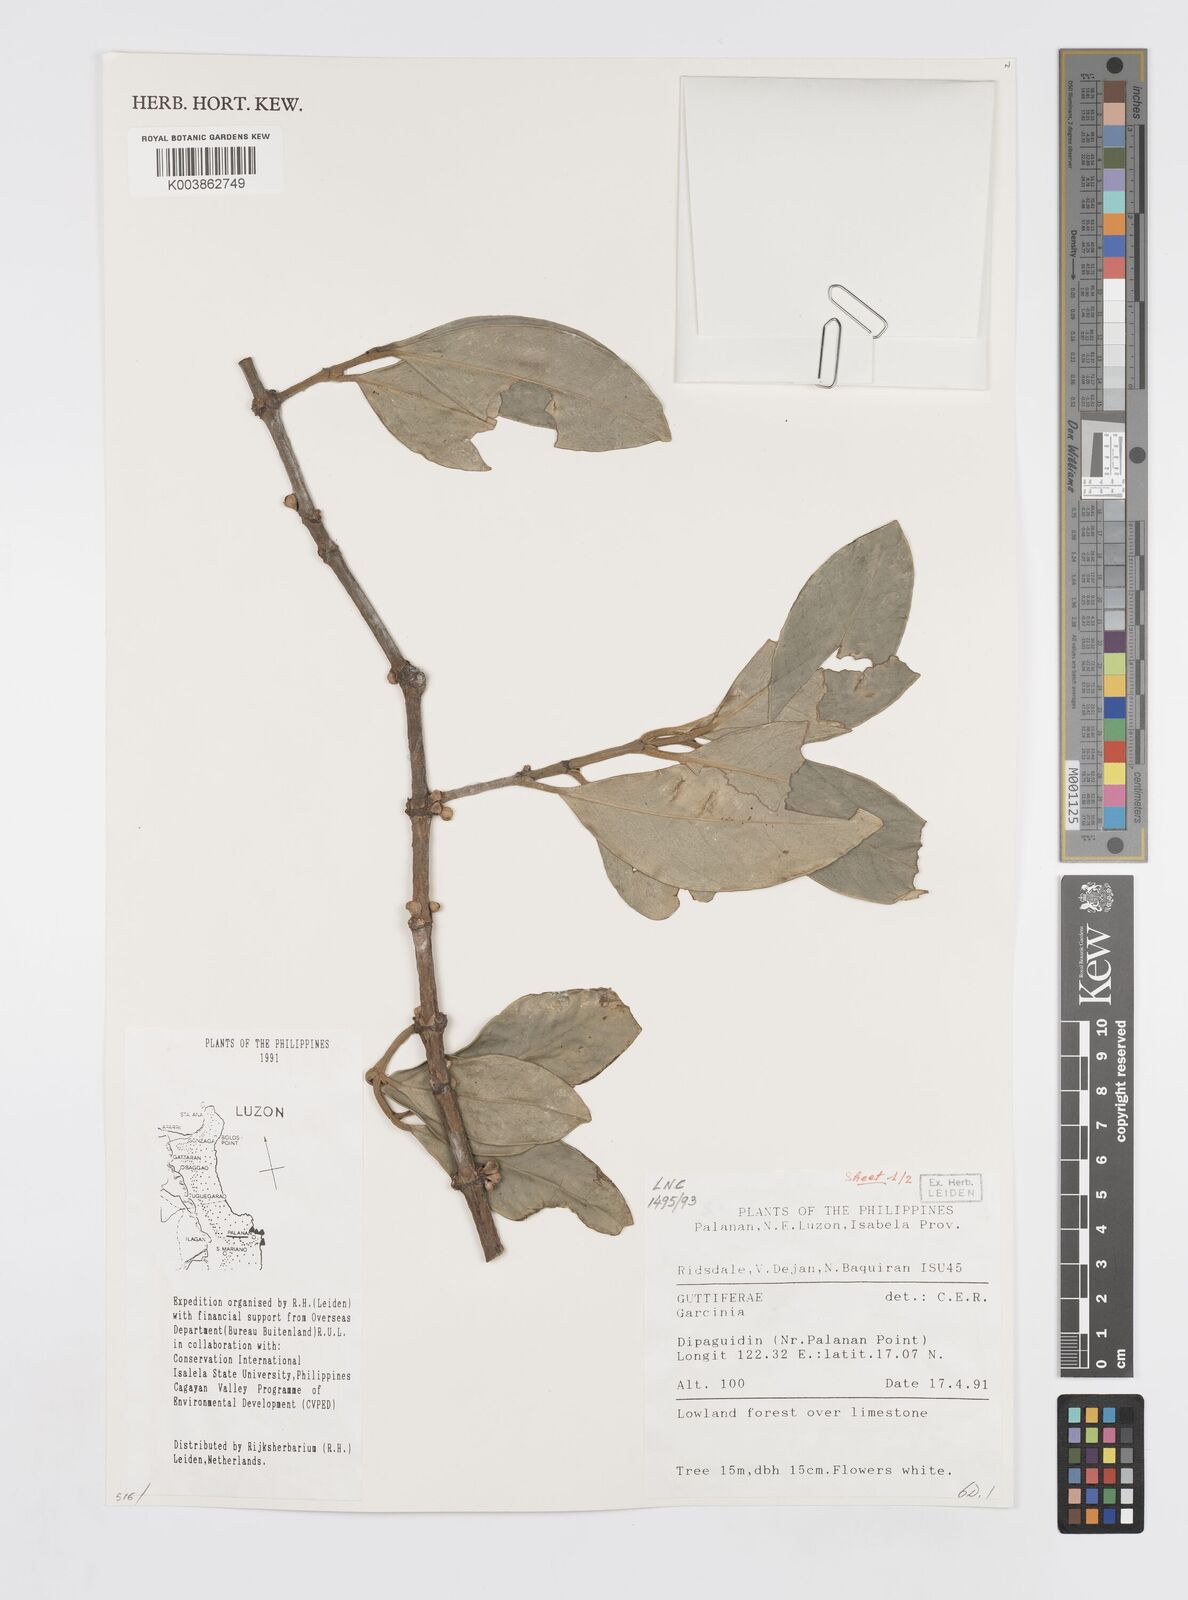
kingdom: Plantae
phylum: Tracheophyta
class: Magnoliopsida
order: Malpighiales
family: Clusiaceae
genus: Garcinia
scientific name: Garcinia
